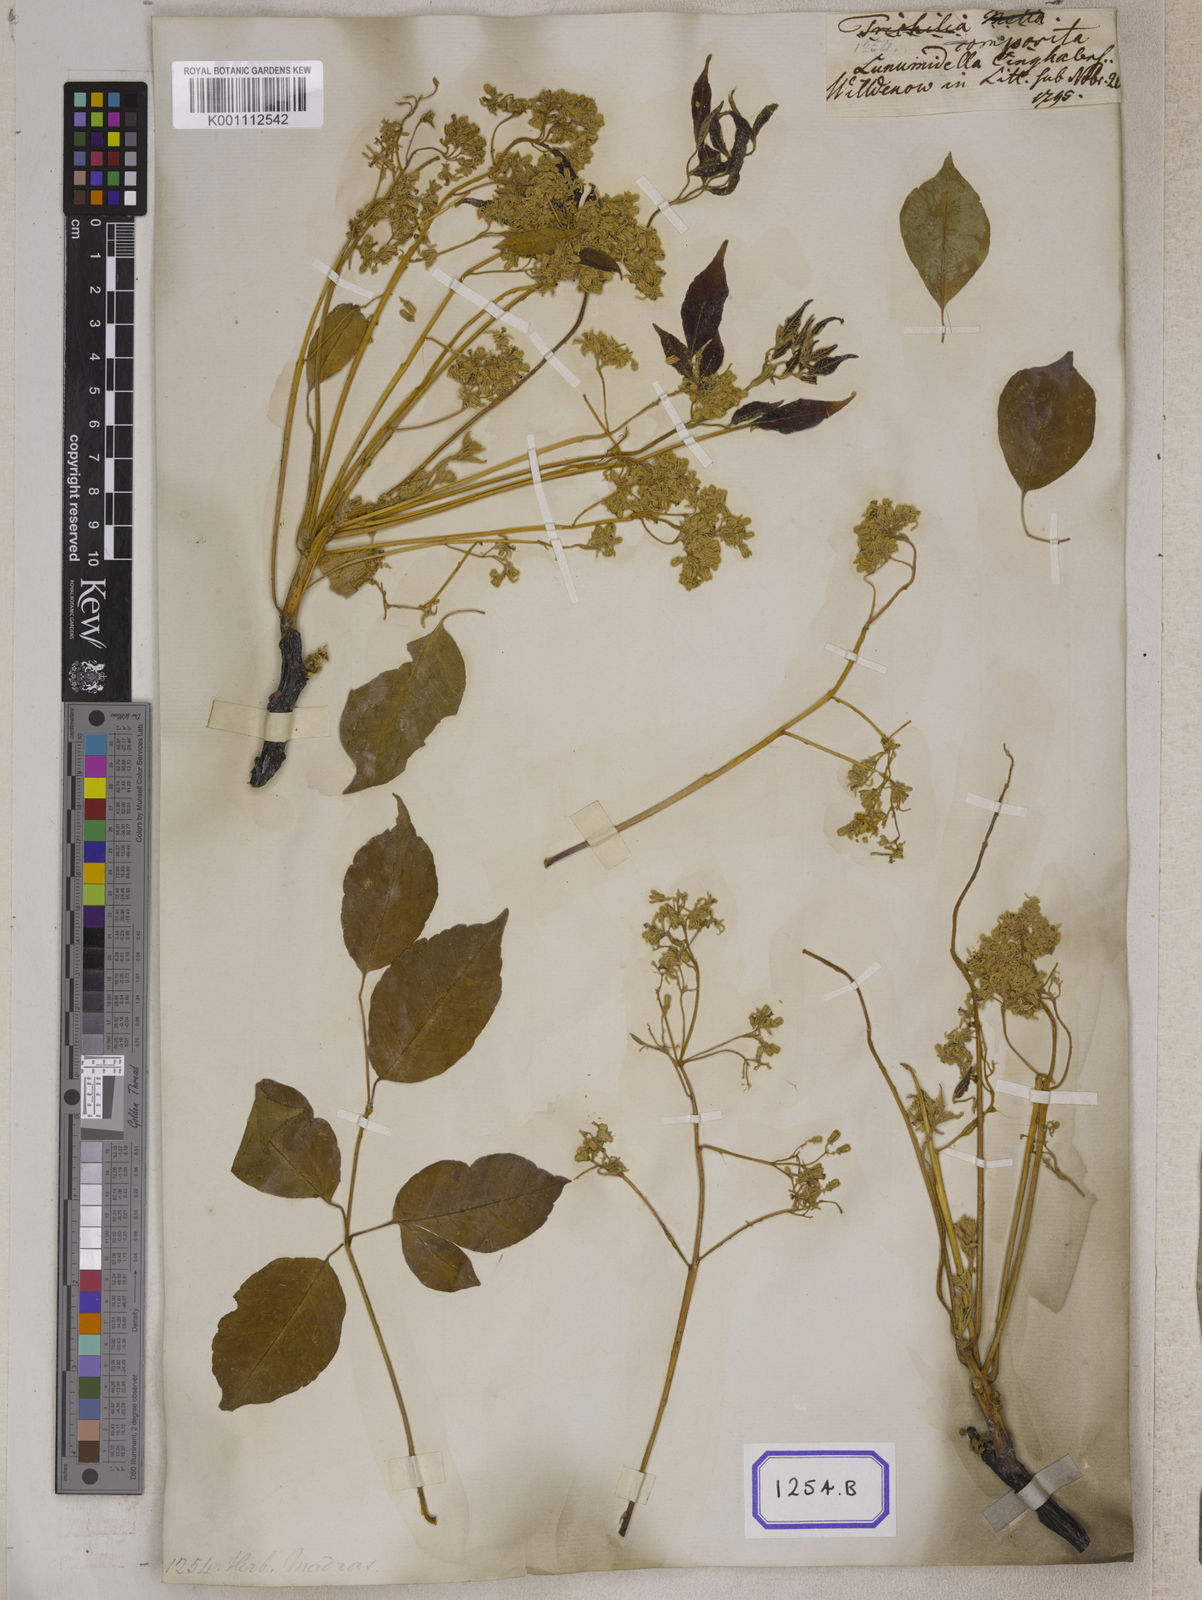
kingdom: Plantae
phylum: Tracheophyta
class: Magnoliopsida
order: Sapindales
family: Meliaceae
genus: Melia
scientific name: Melia azedarach
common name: Chinaberrytree
